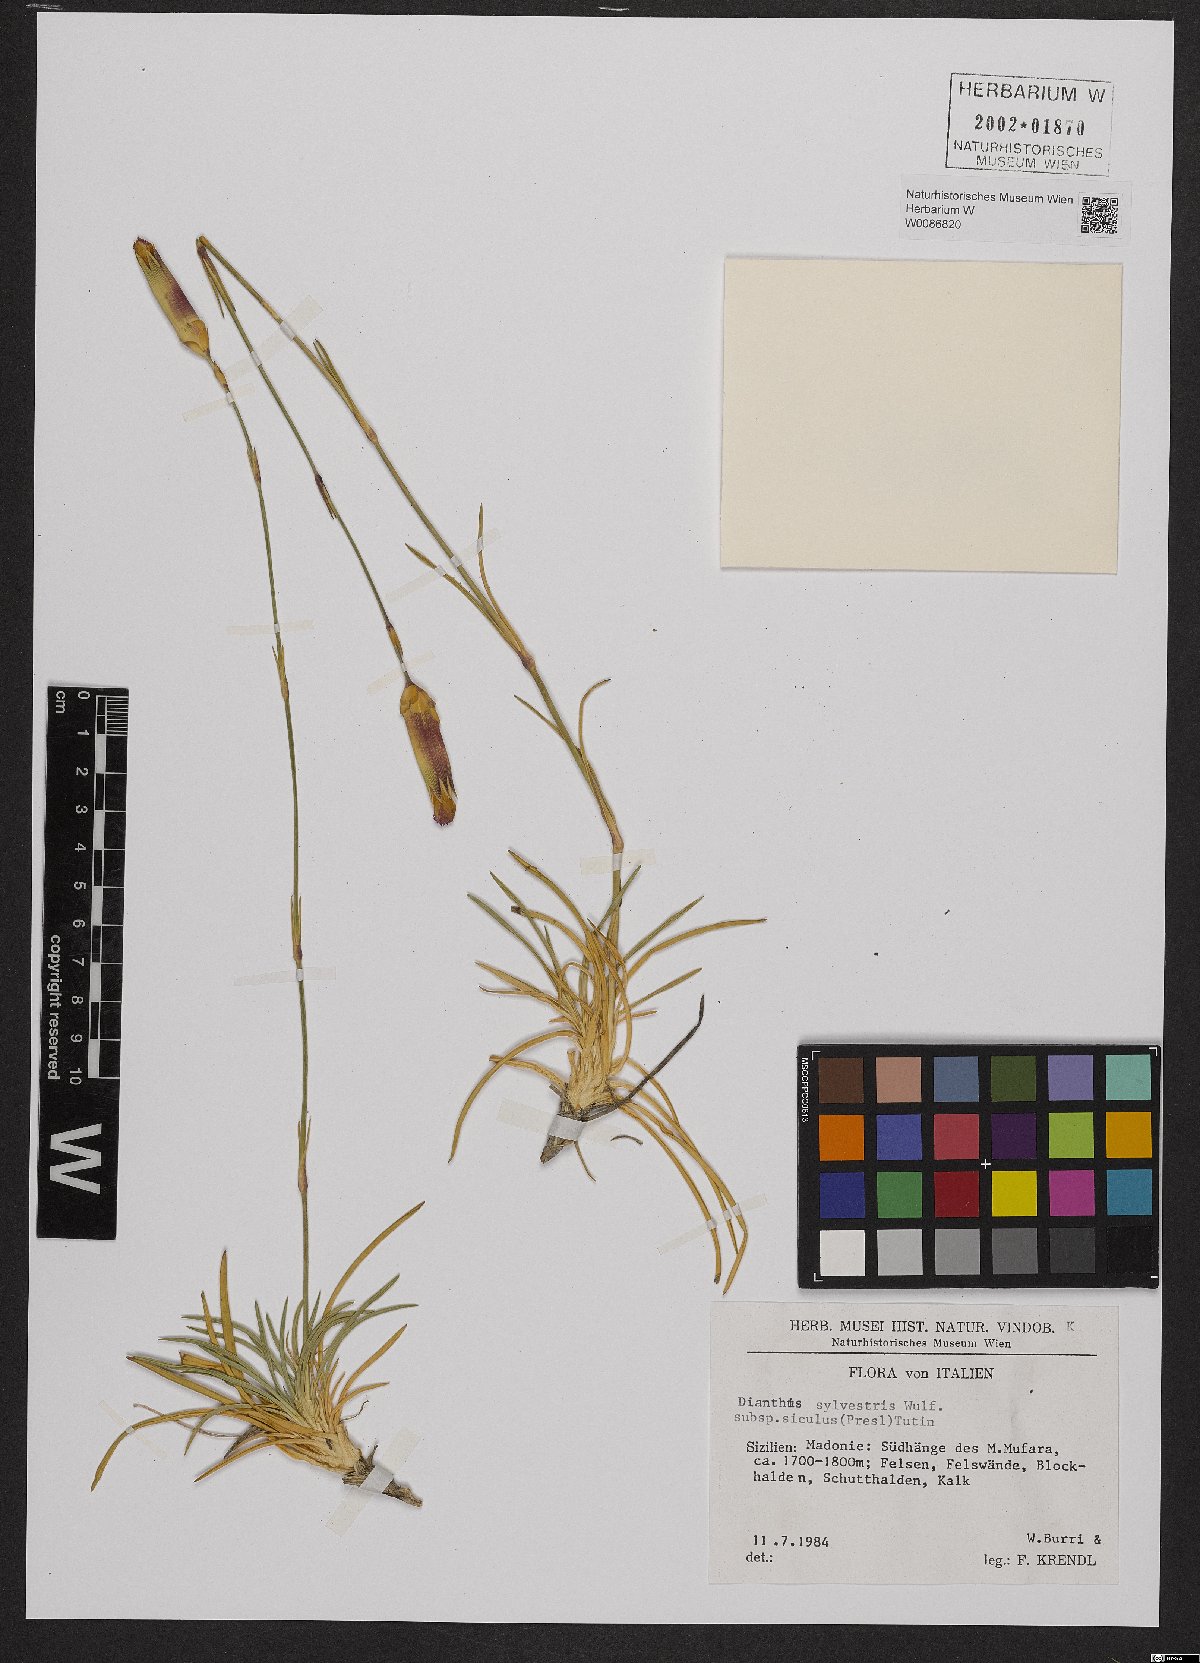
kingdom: Plantae
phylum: Tracheophyta
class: Magnoliopsida
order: Caryophyllales
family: Caryophyllaceae
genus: Dianthus
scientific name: Dianthus siculus
